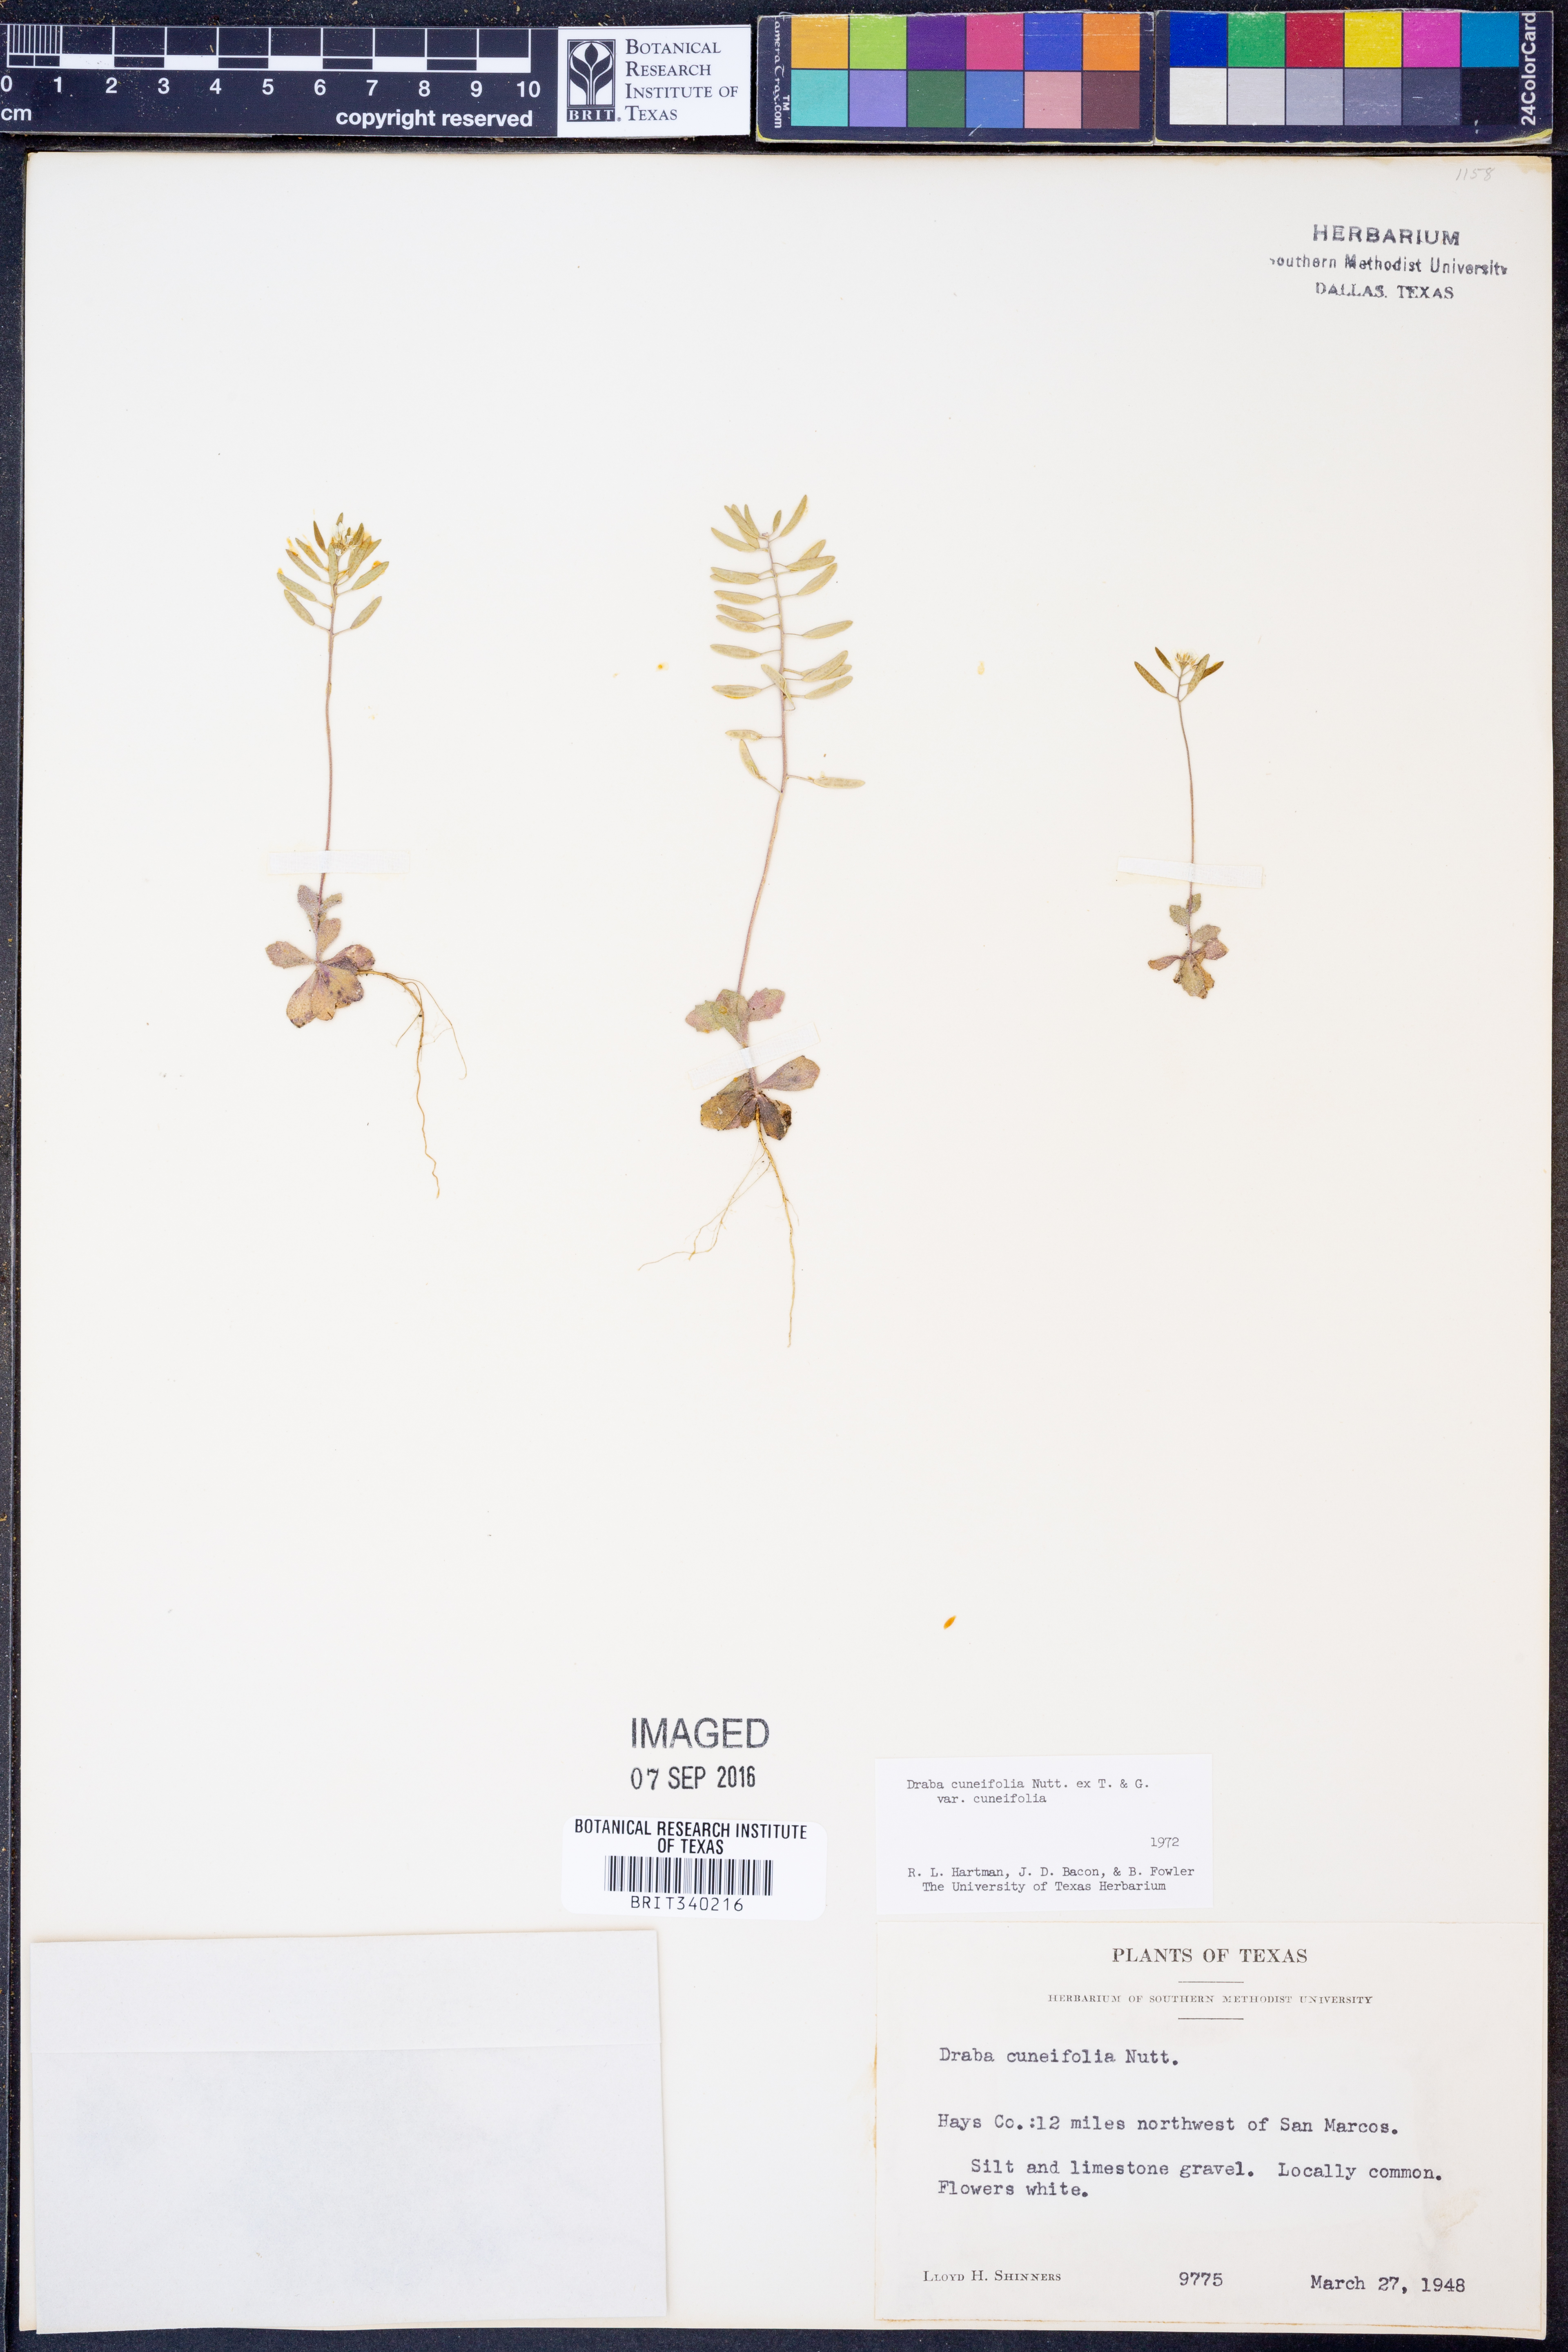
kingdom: Plantae
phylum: Tracheophyta
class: Magnoliopsida
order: Brassicales
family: Brassicaceae
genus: Tomostima
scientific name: Tomostima cuneifolia
